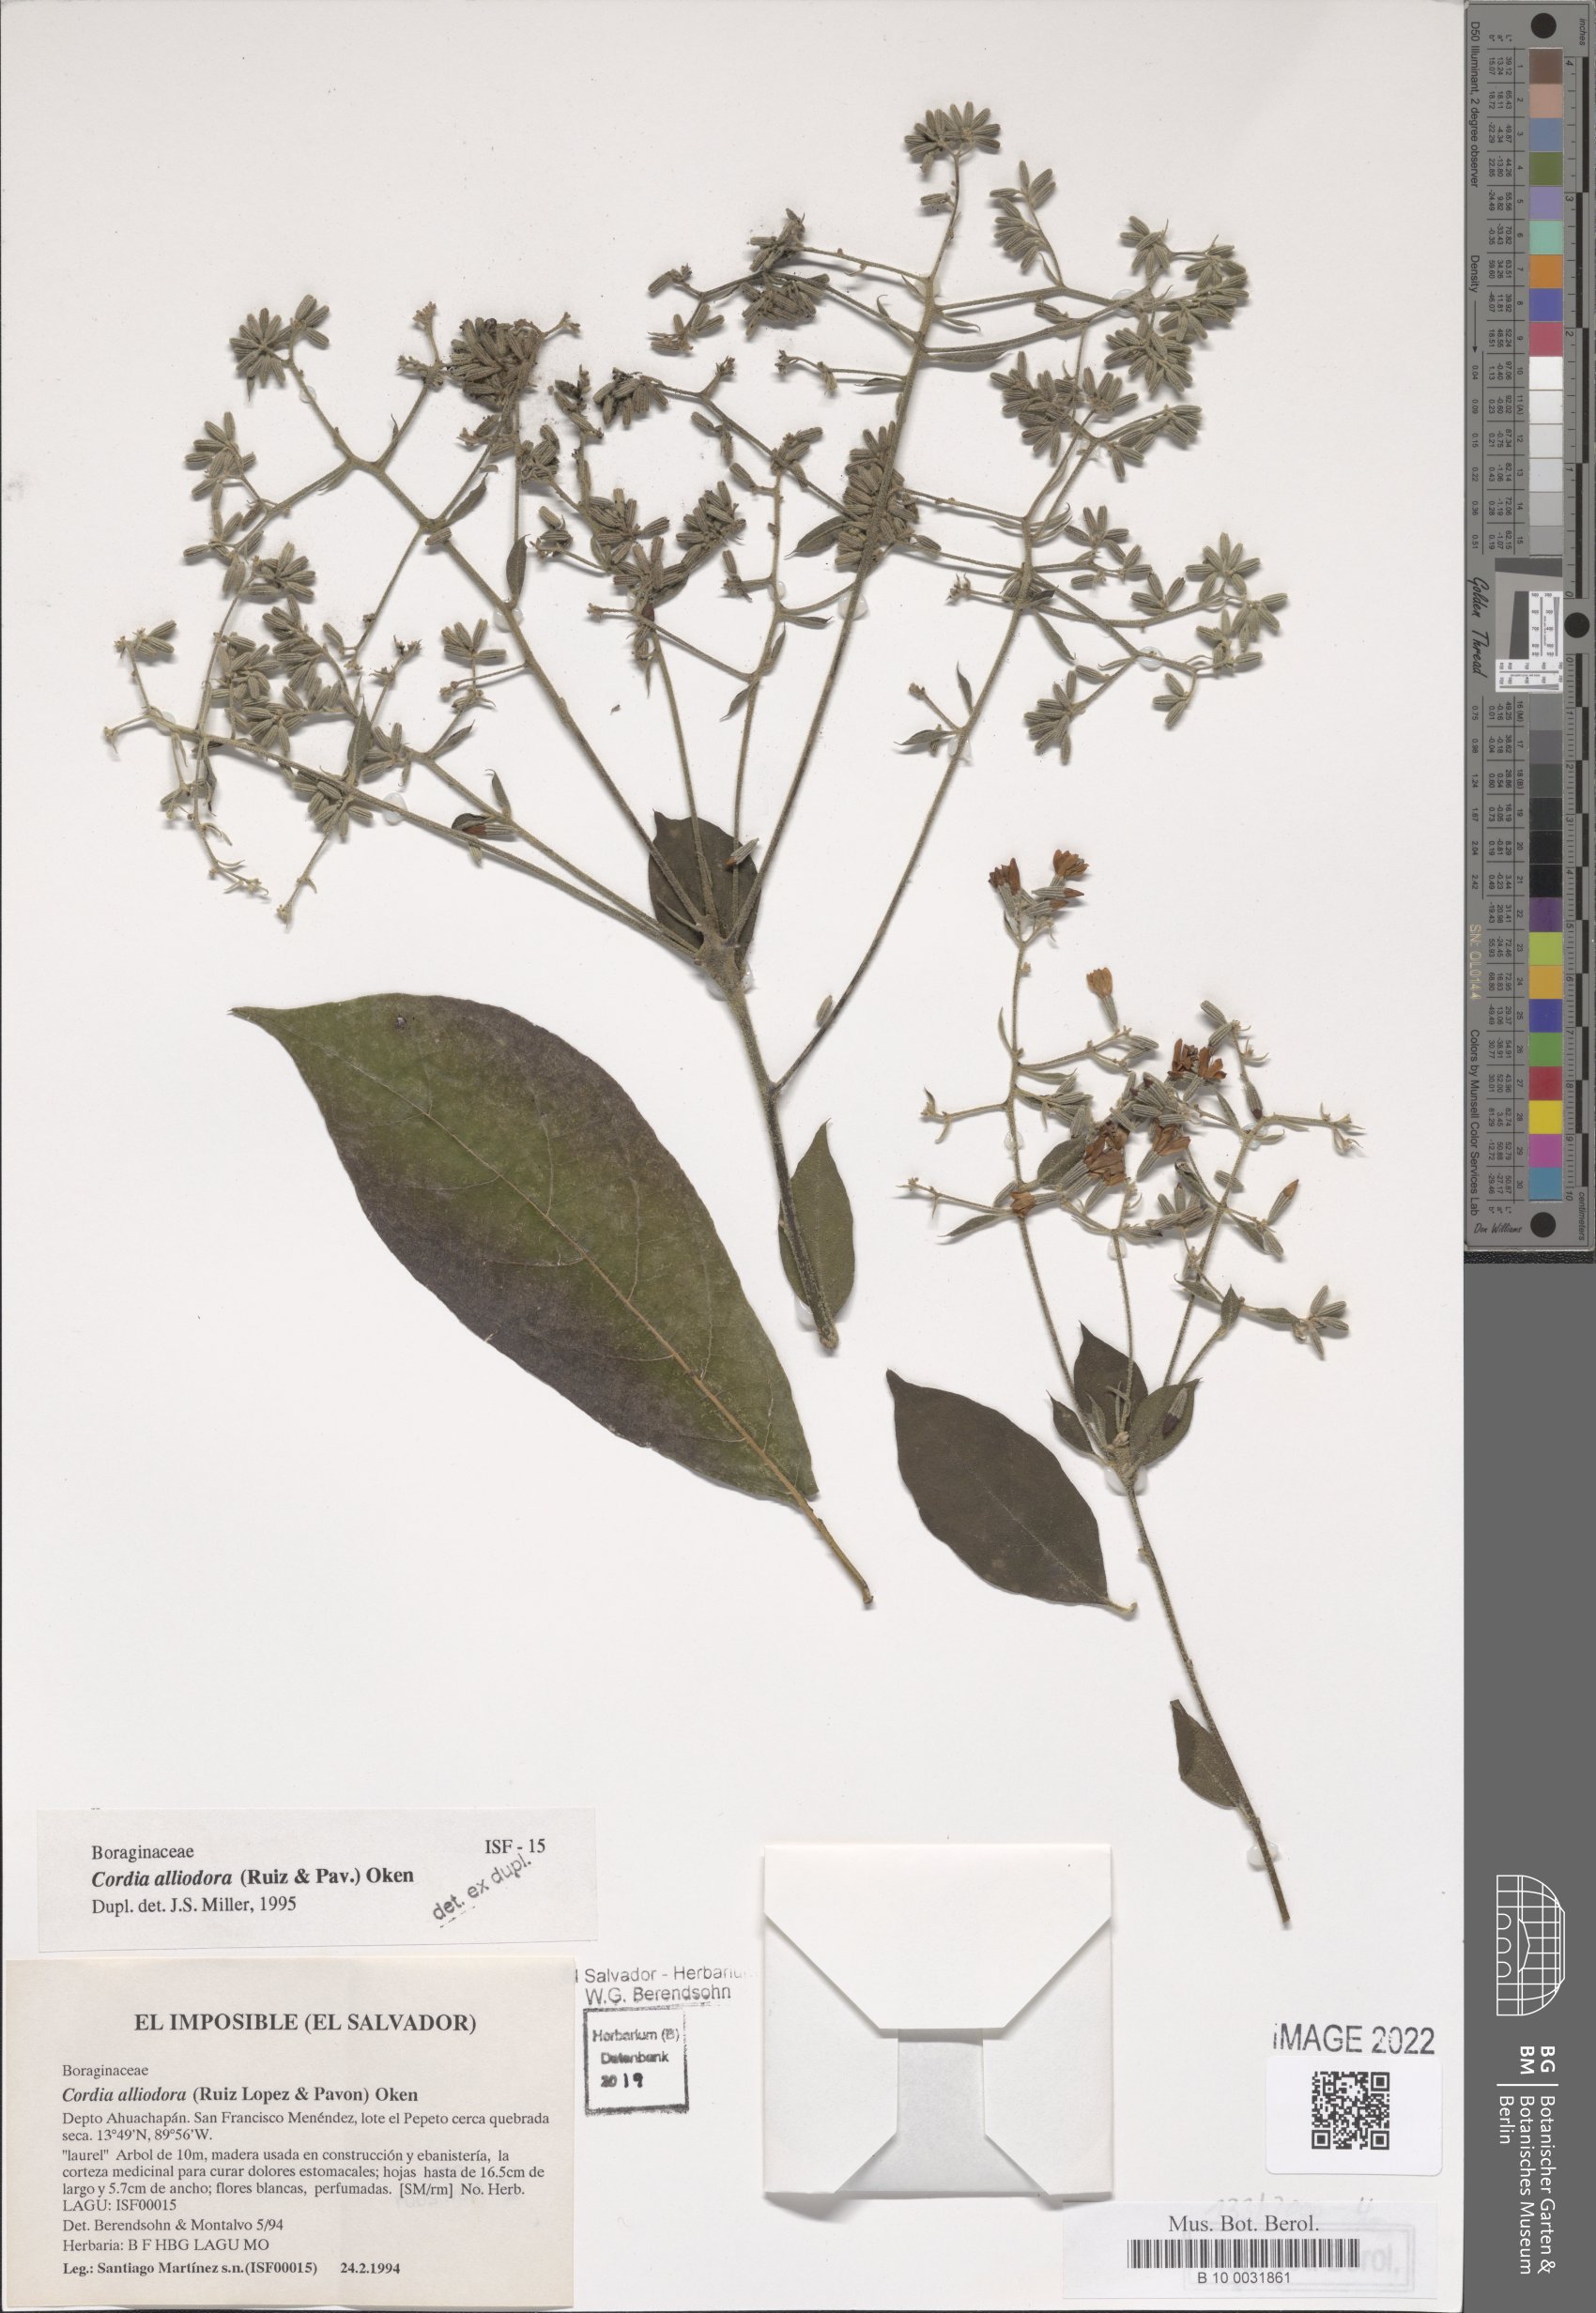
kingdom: Plantae
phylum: Tracheophyta
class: Magnoliopsida
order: Boraginales
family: Cordiaceae
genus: Cordia
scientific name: Cordia alliodora
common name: Spanish elm
